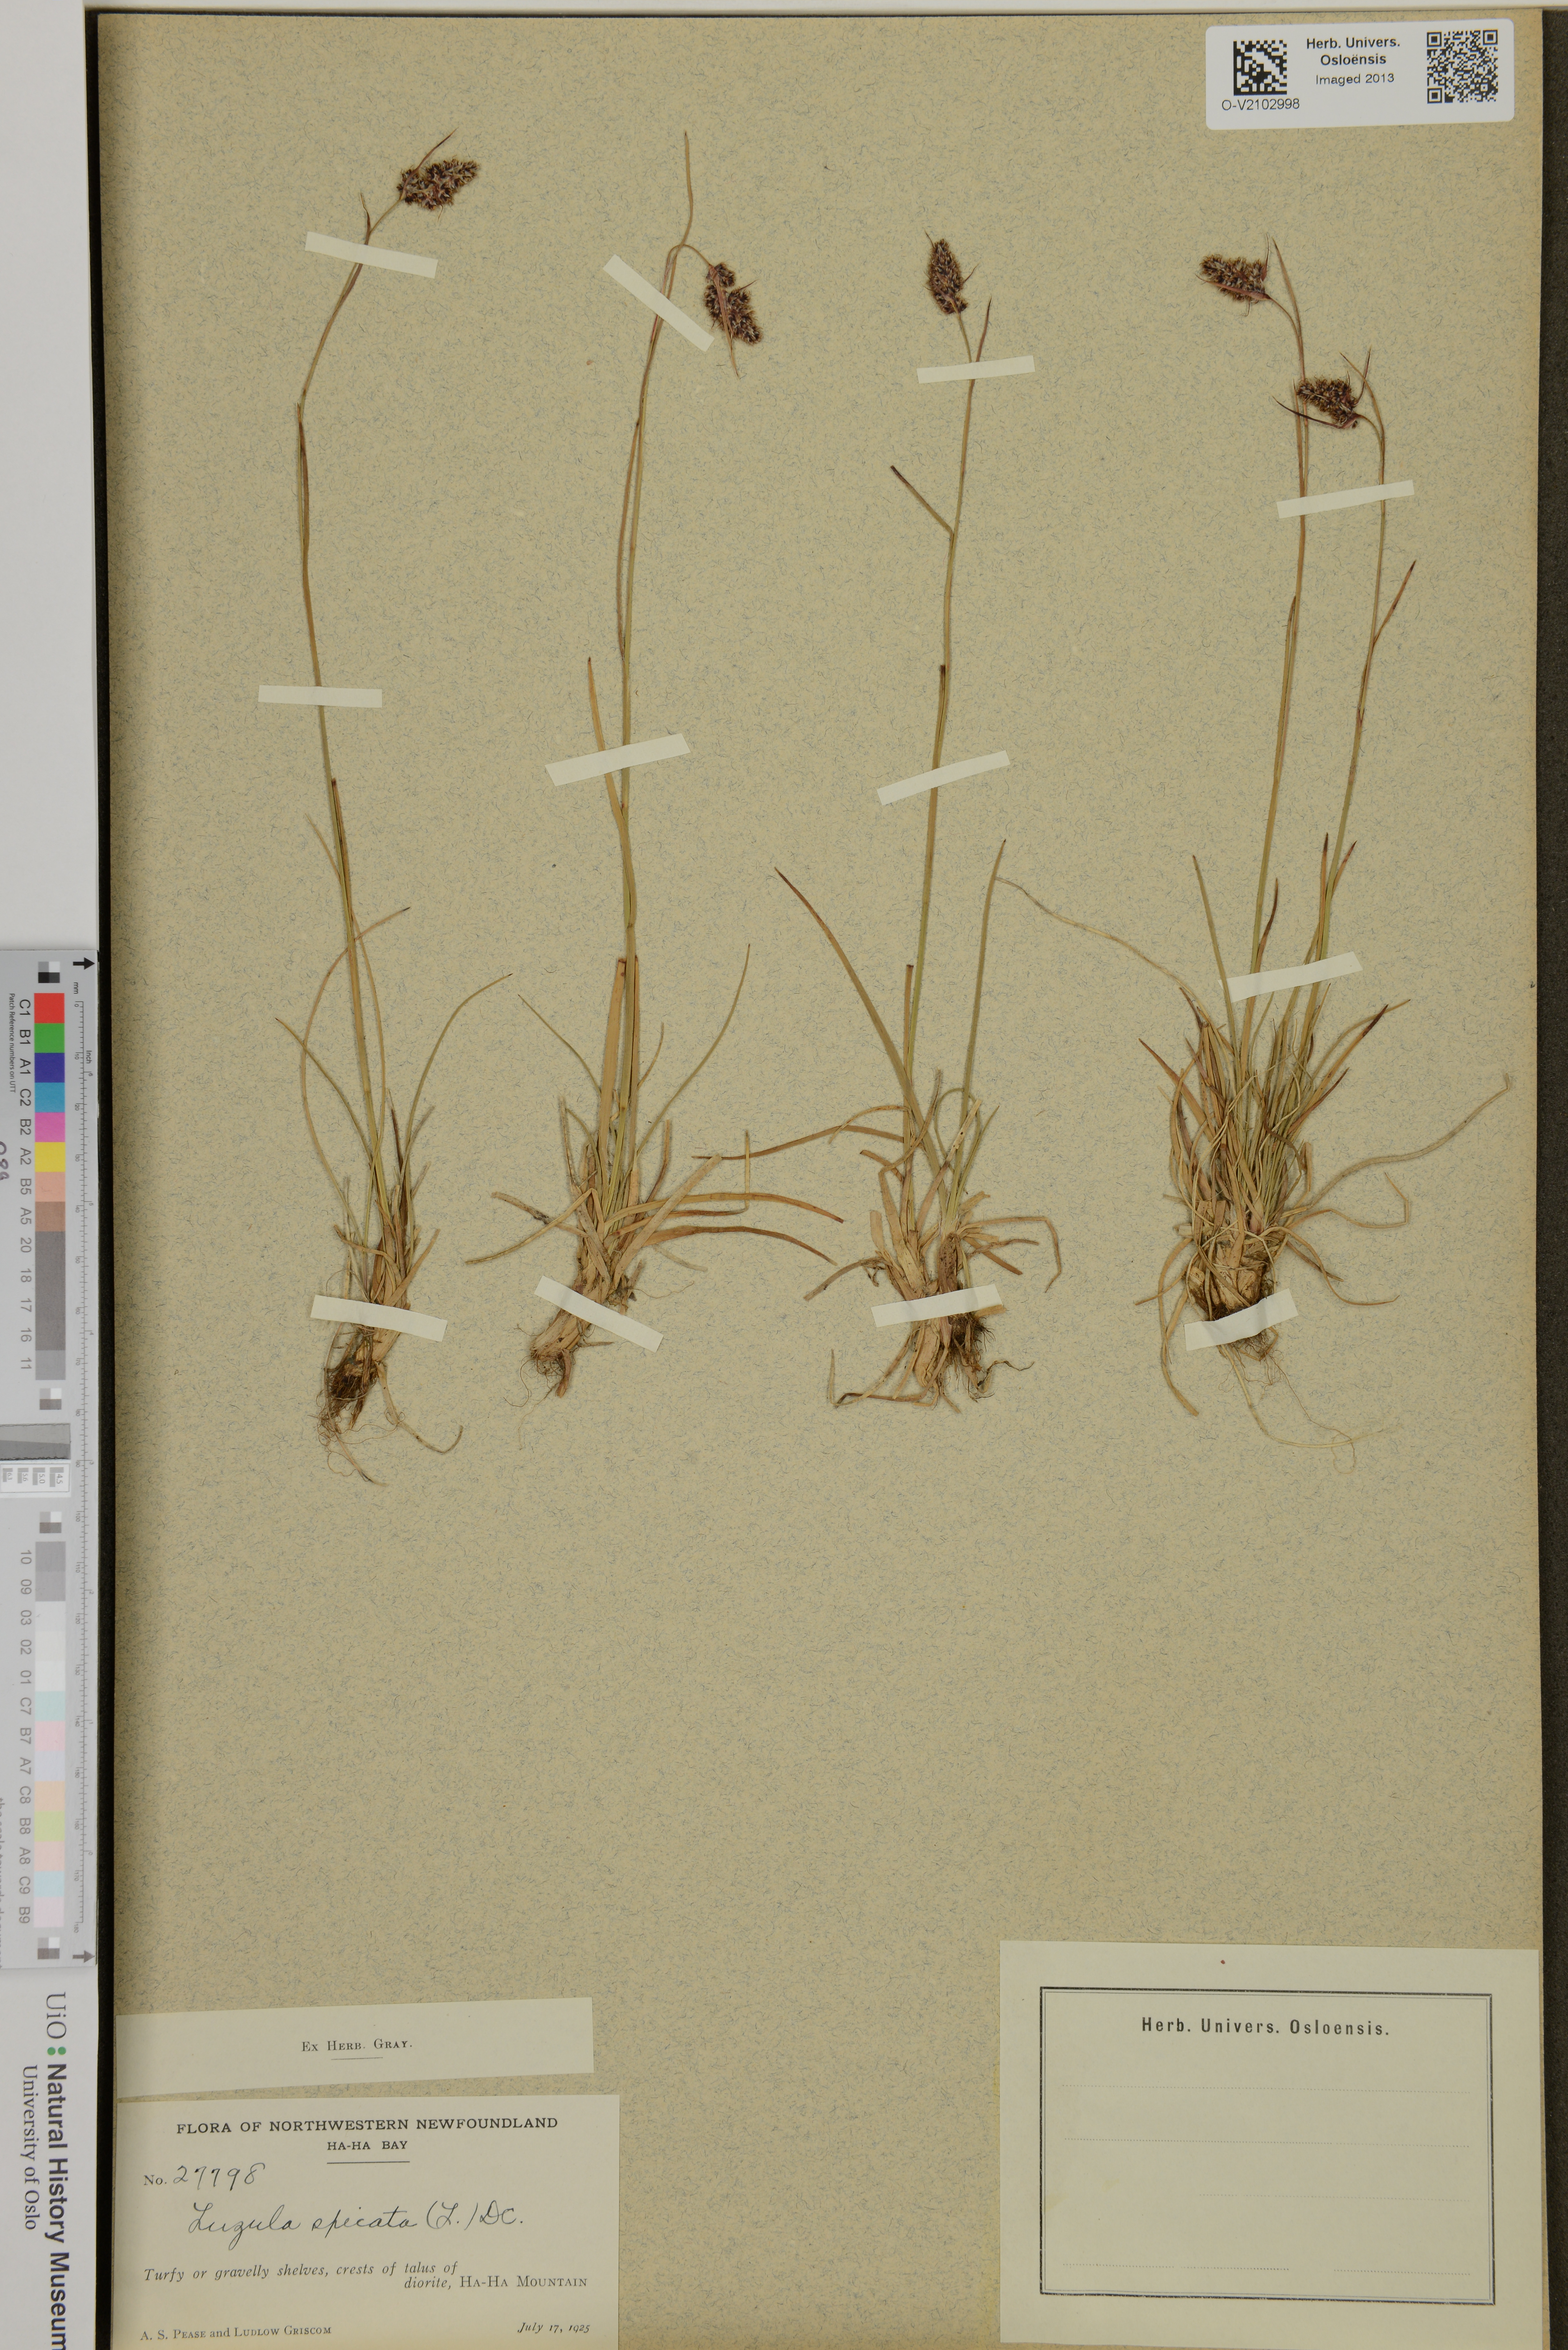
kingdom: Plantae
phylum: Tracheophyta
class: Liliopsida
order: Poales
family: Juncaceae
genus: Luzula
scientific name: Luzula spicata
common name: Spiked wood-rush
